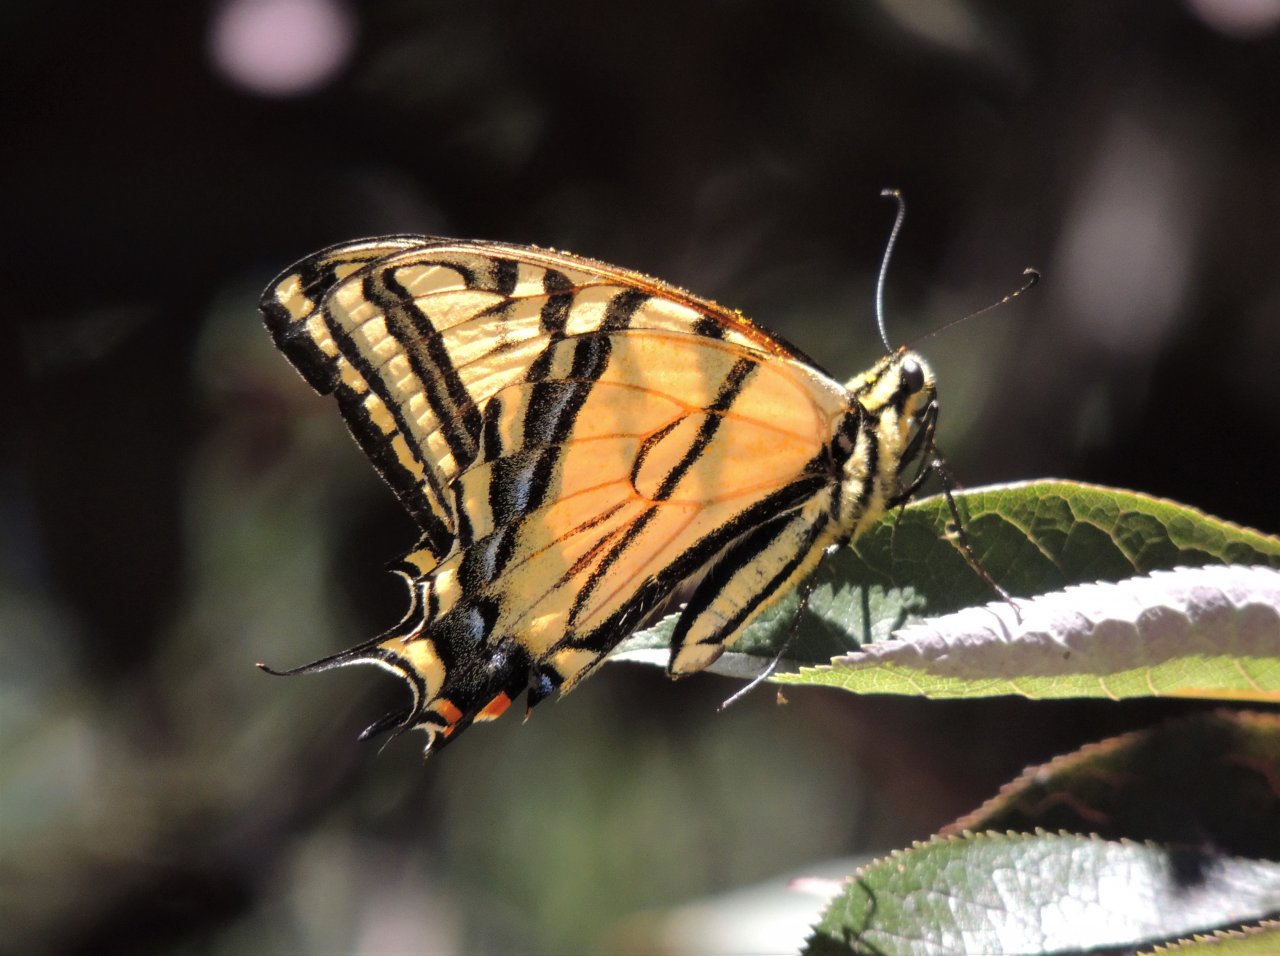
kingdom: Animalia
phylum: Arthropoda
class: Insecta
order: Lepidoptera
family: Papilionidae
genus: Papilio
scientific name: Papilio multicaudata
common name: Two-tailed Swallowtail
